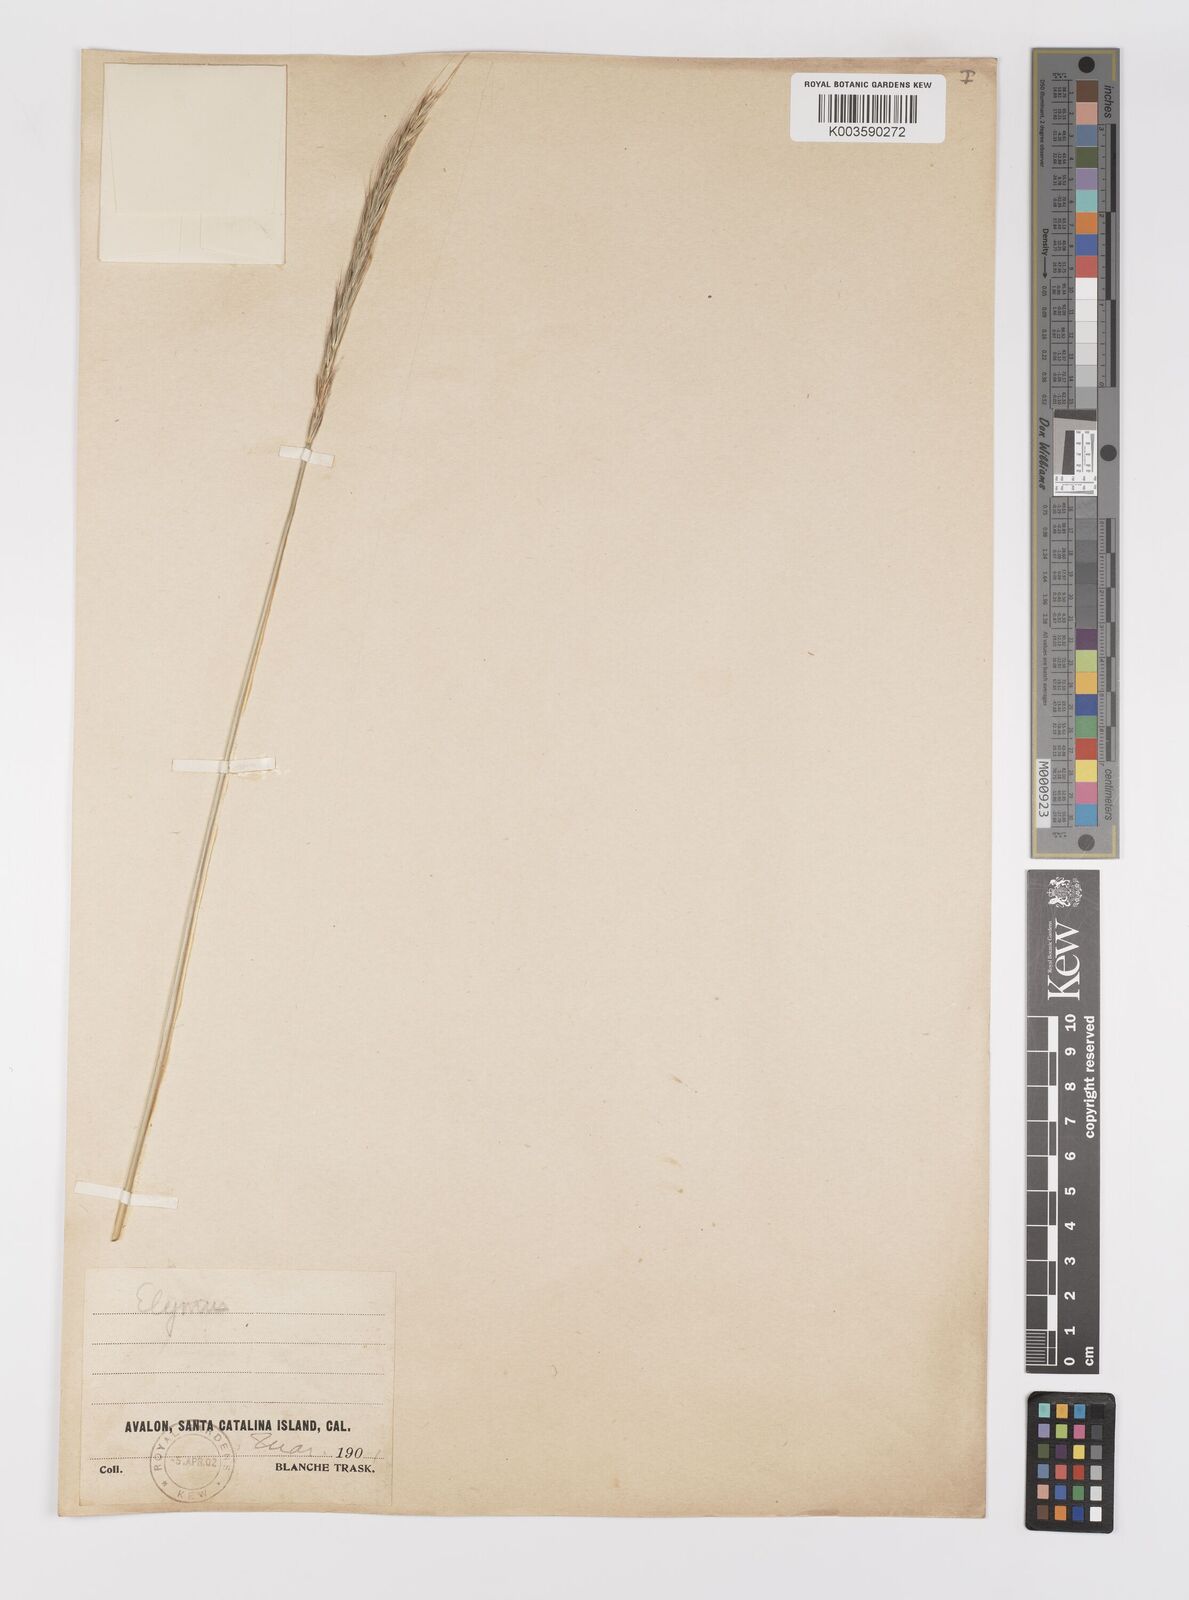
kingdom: Plantae
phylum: Tracheophyta
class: Liliopsida
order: Poales
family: Poaceae
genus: Elymus
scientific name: Elymus
